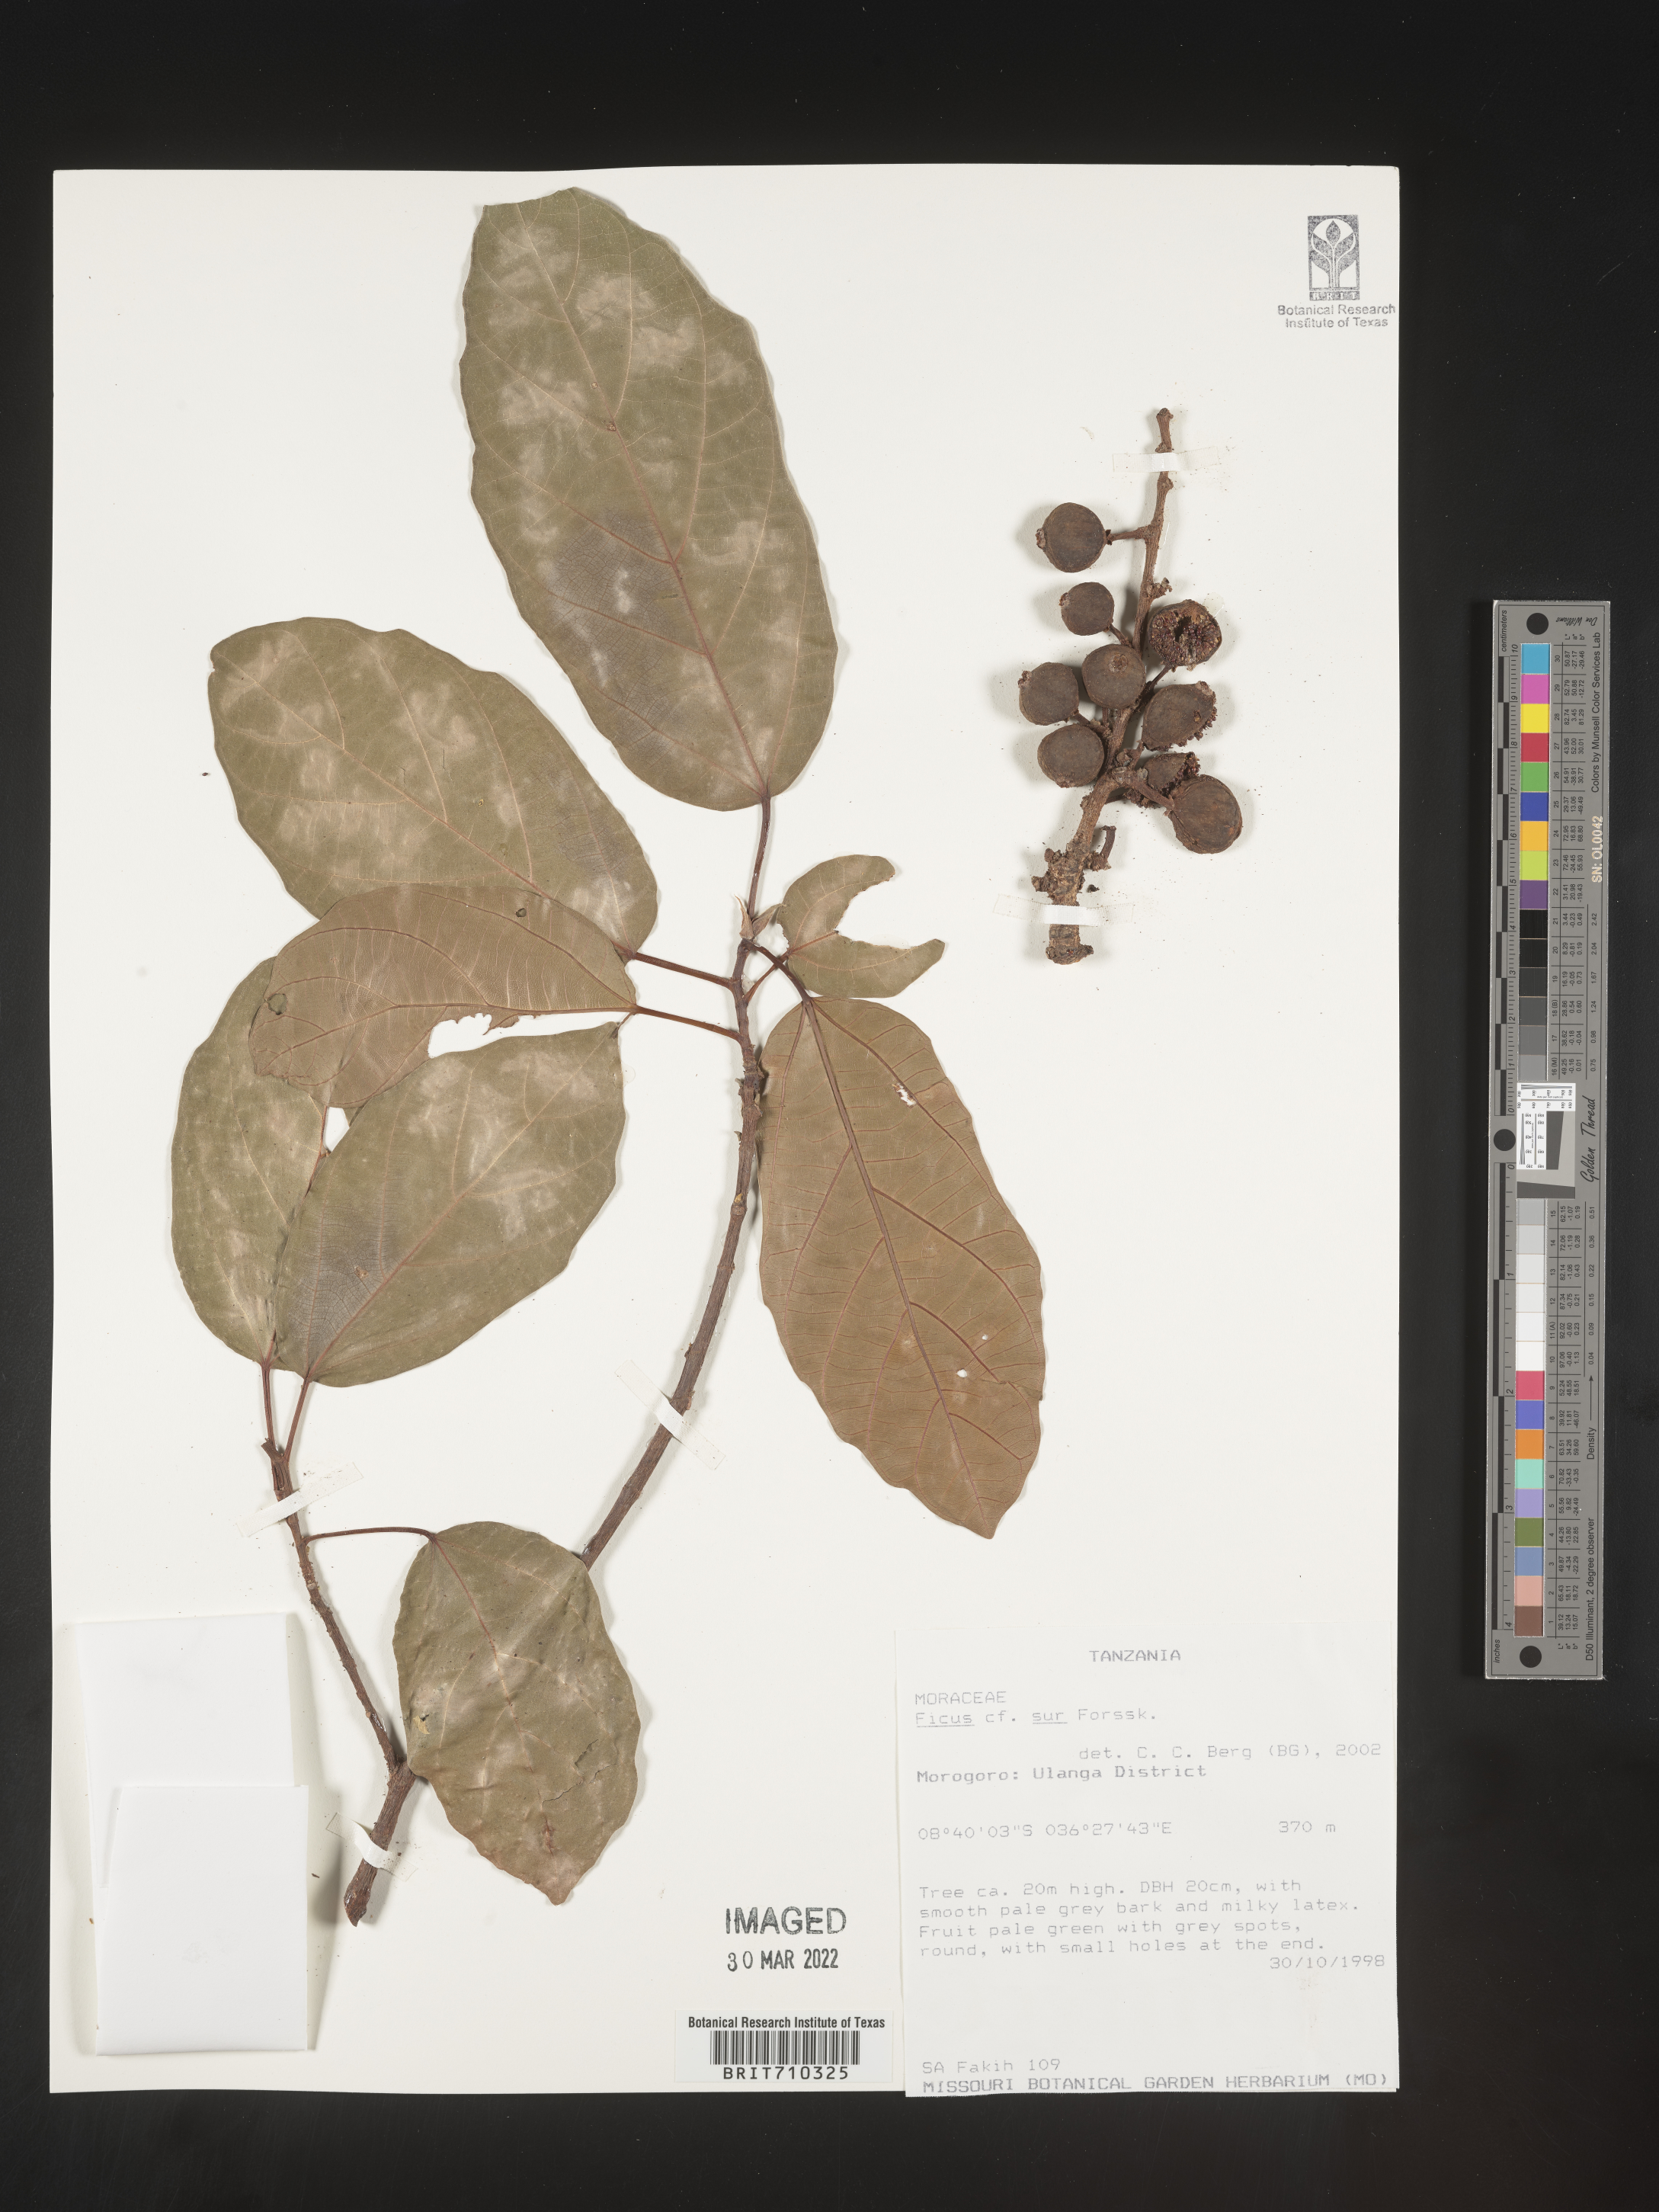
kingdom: Plantae
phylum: Tracheophyta
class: Magnoliopsida
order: Rosales
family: Moraceae
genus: Ficus
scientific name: Ficus
